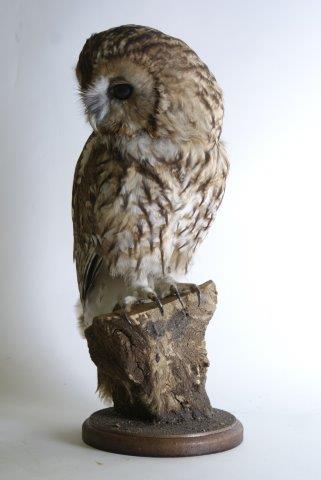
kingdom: Animalia
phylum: Chordata
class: Aves
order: Strigiformes
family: Strigidae
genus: Strix
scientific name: Strix aluco
